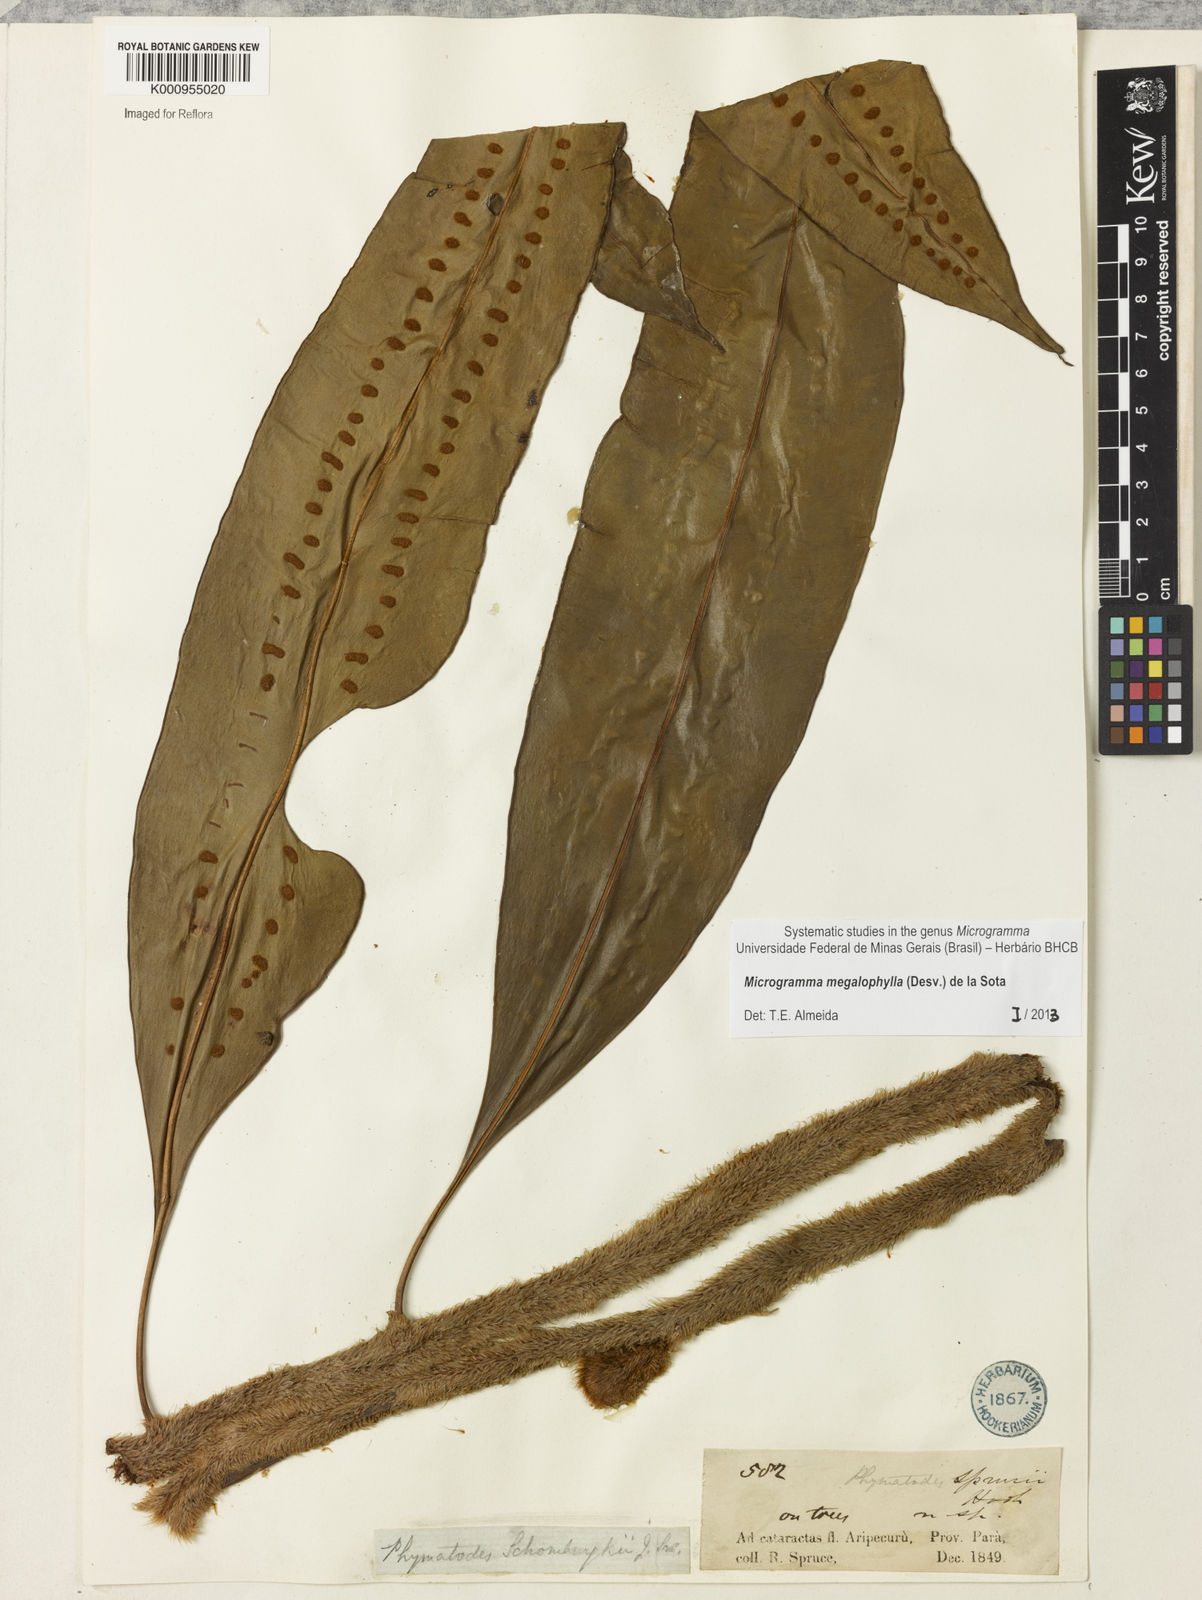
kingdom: Plantae
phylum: Tracheophyta
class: Polypodiopsida
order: Polypodiales
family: Polypodiaceae
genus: Microgramma
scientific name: Microgramma megalophylla
